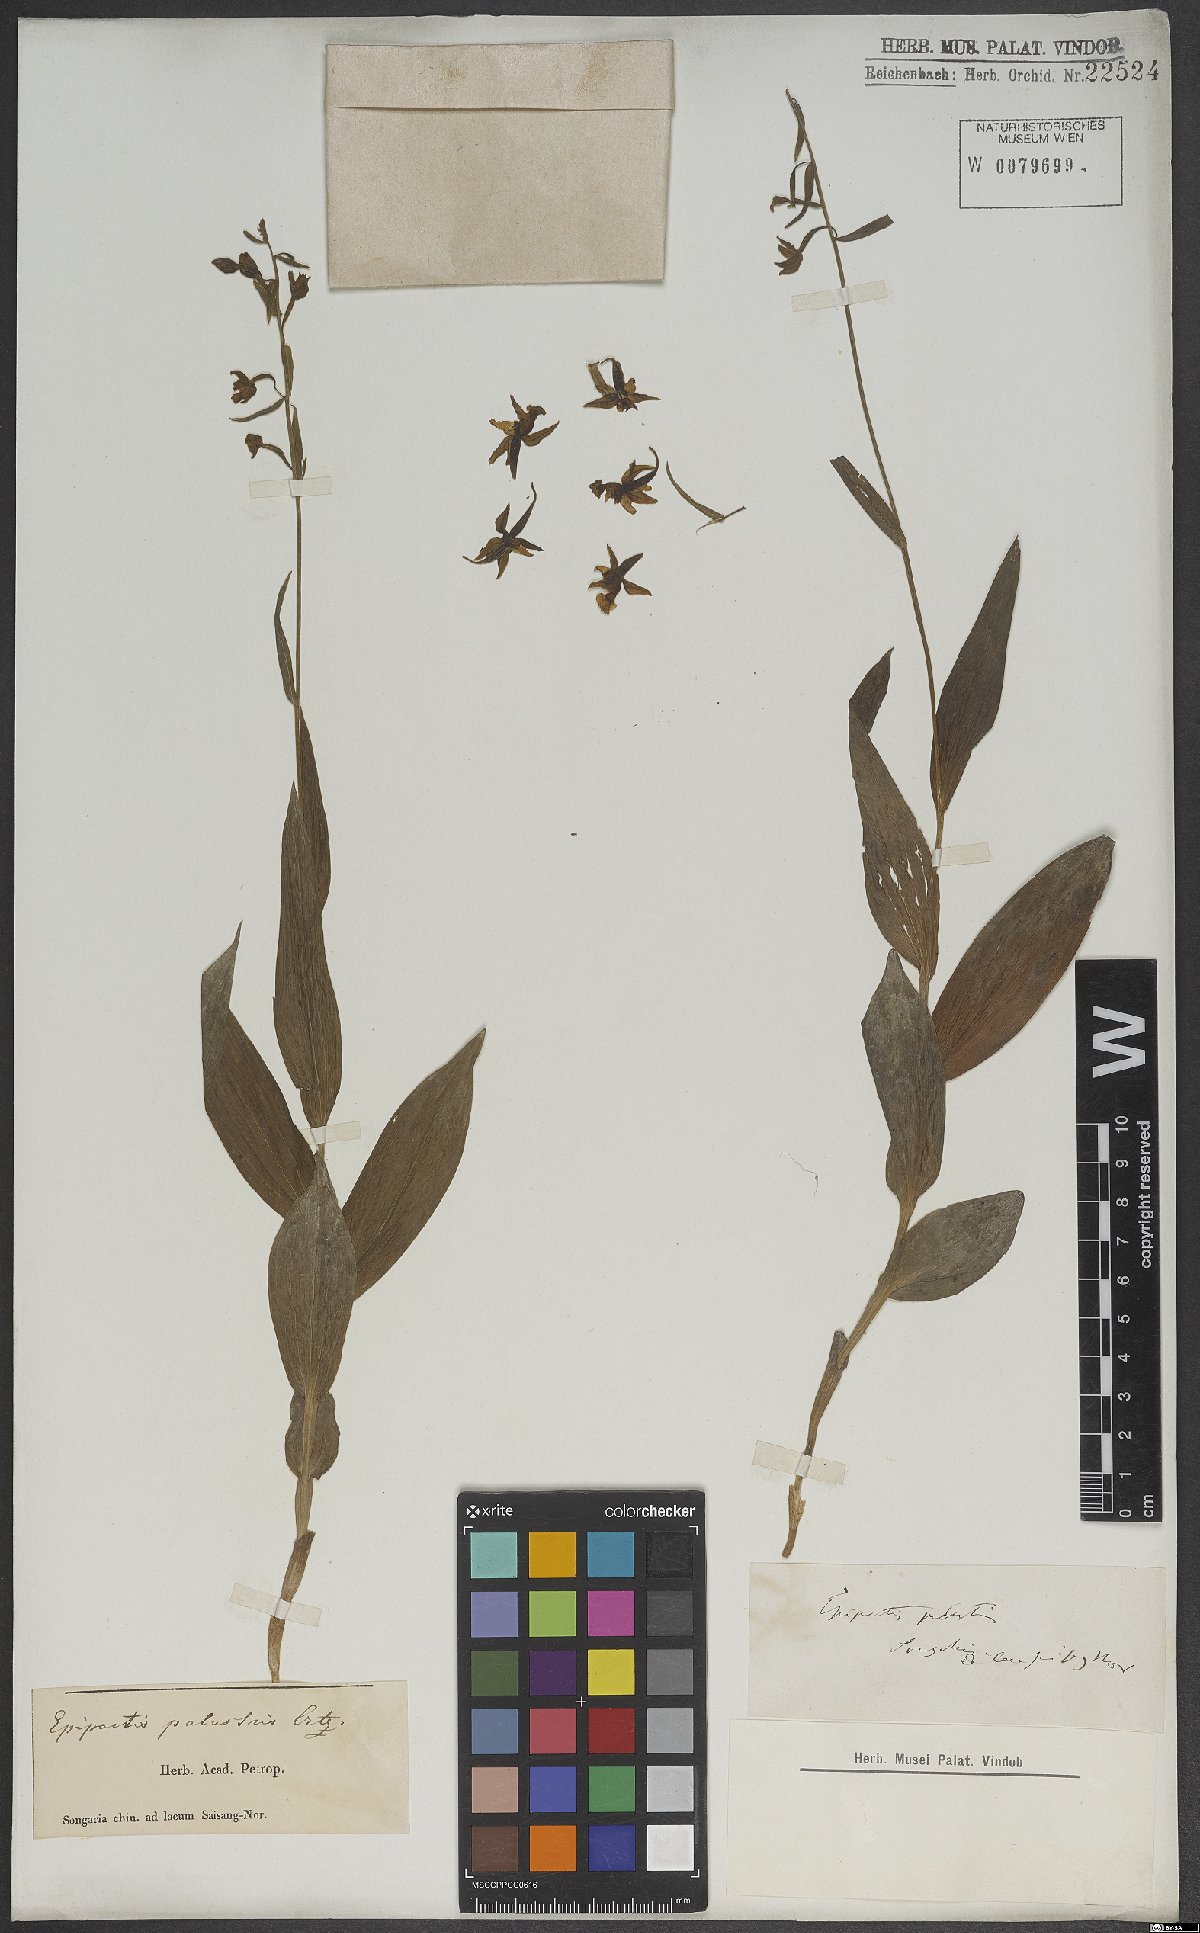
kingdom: Plantae
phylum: Tracheophyta
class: Liliopsida
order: Asparagales
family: Orchidaceae
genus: Epipactis
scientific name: Epipactis palustris
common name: Marsh helleborine
